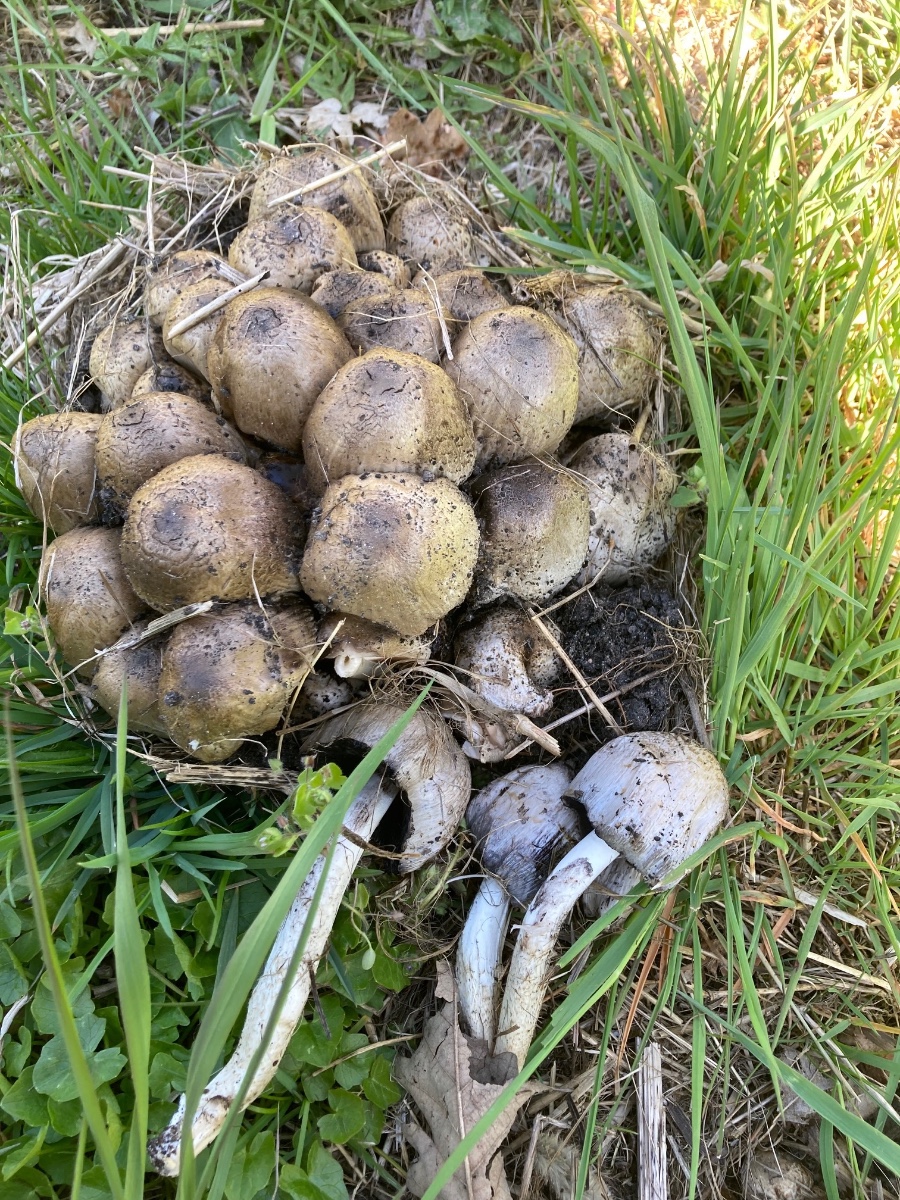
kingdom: Fungi
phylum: Basidiomycota
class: Agaricomycetes
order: Agaricales
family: Psathyrellaceae
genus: Coprinopsis
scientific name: Coprinopsis atramentaria
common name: almindelig blækhat
